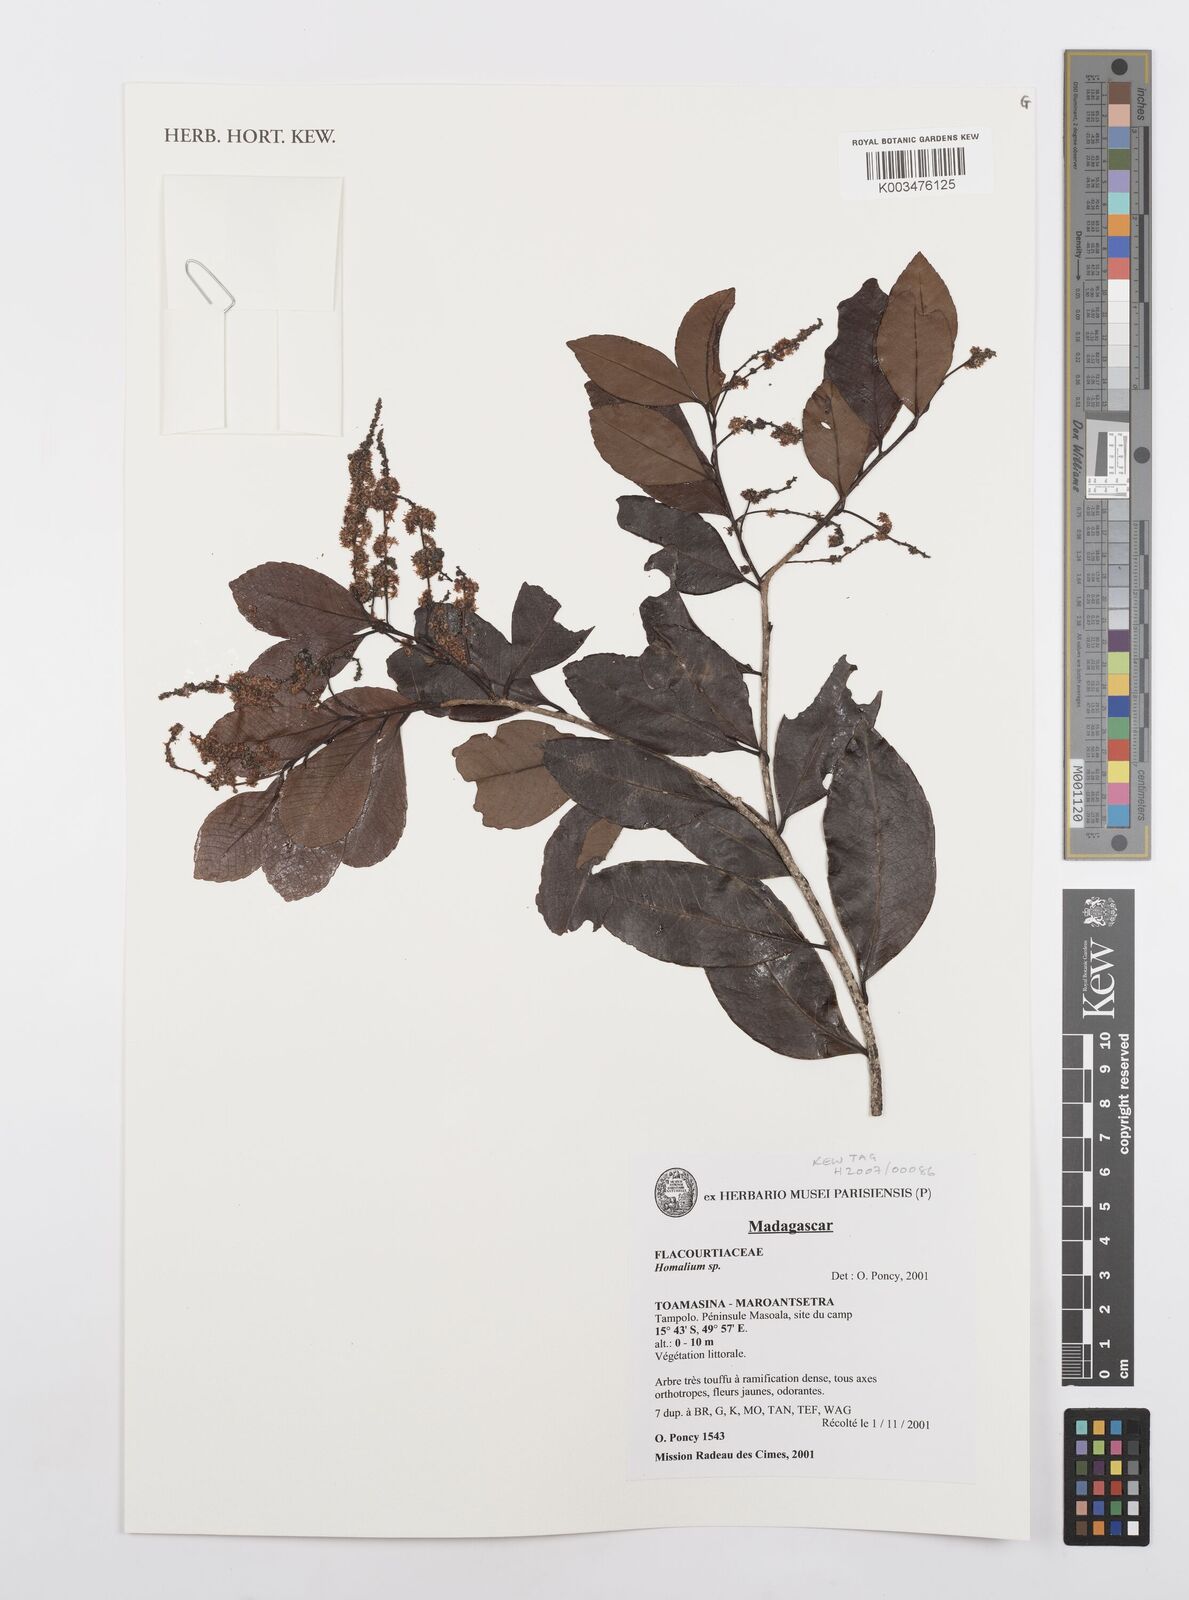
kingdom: Plantae
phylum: Tracheophyta
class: Magnoliopsida
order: Malpighiales
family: Salicaceae
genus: Homalium
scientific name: Homalium
